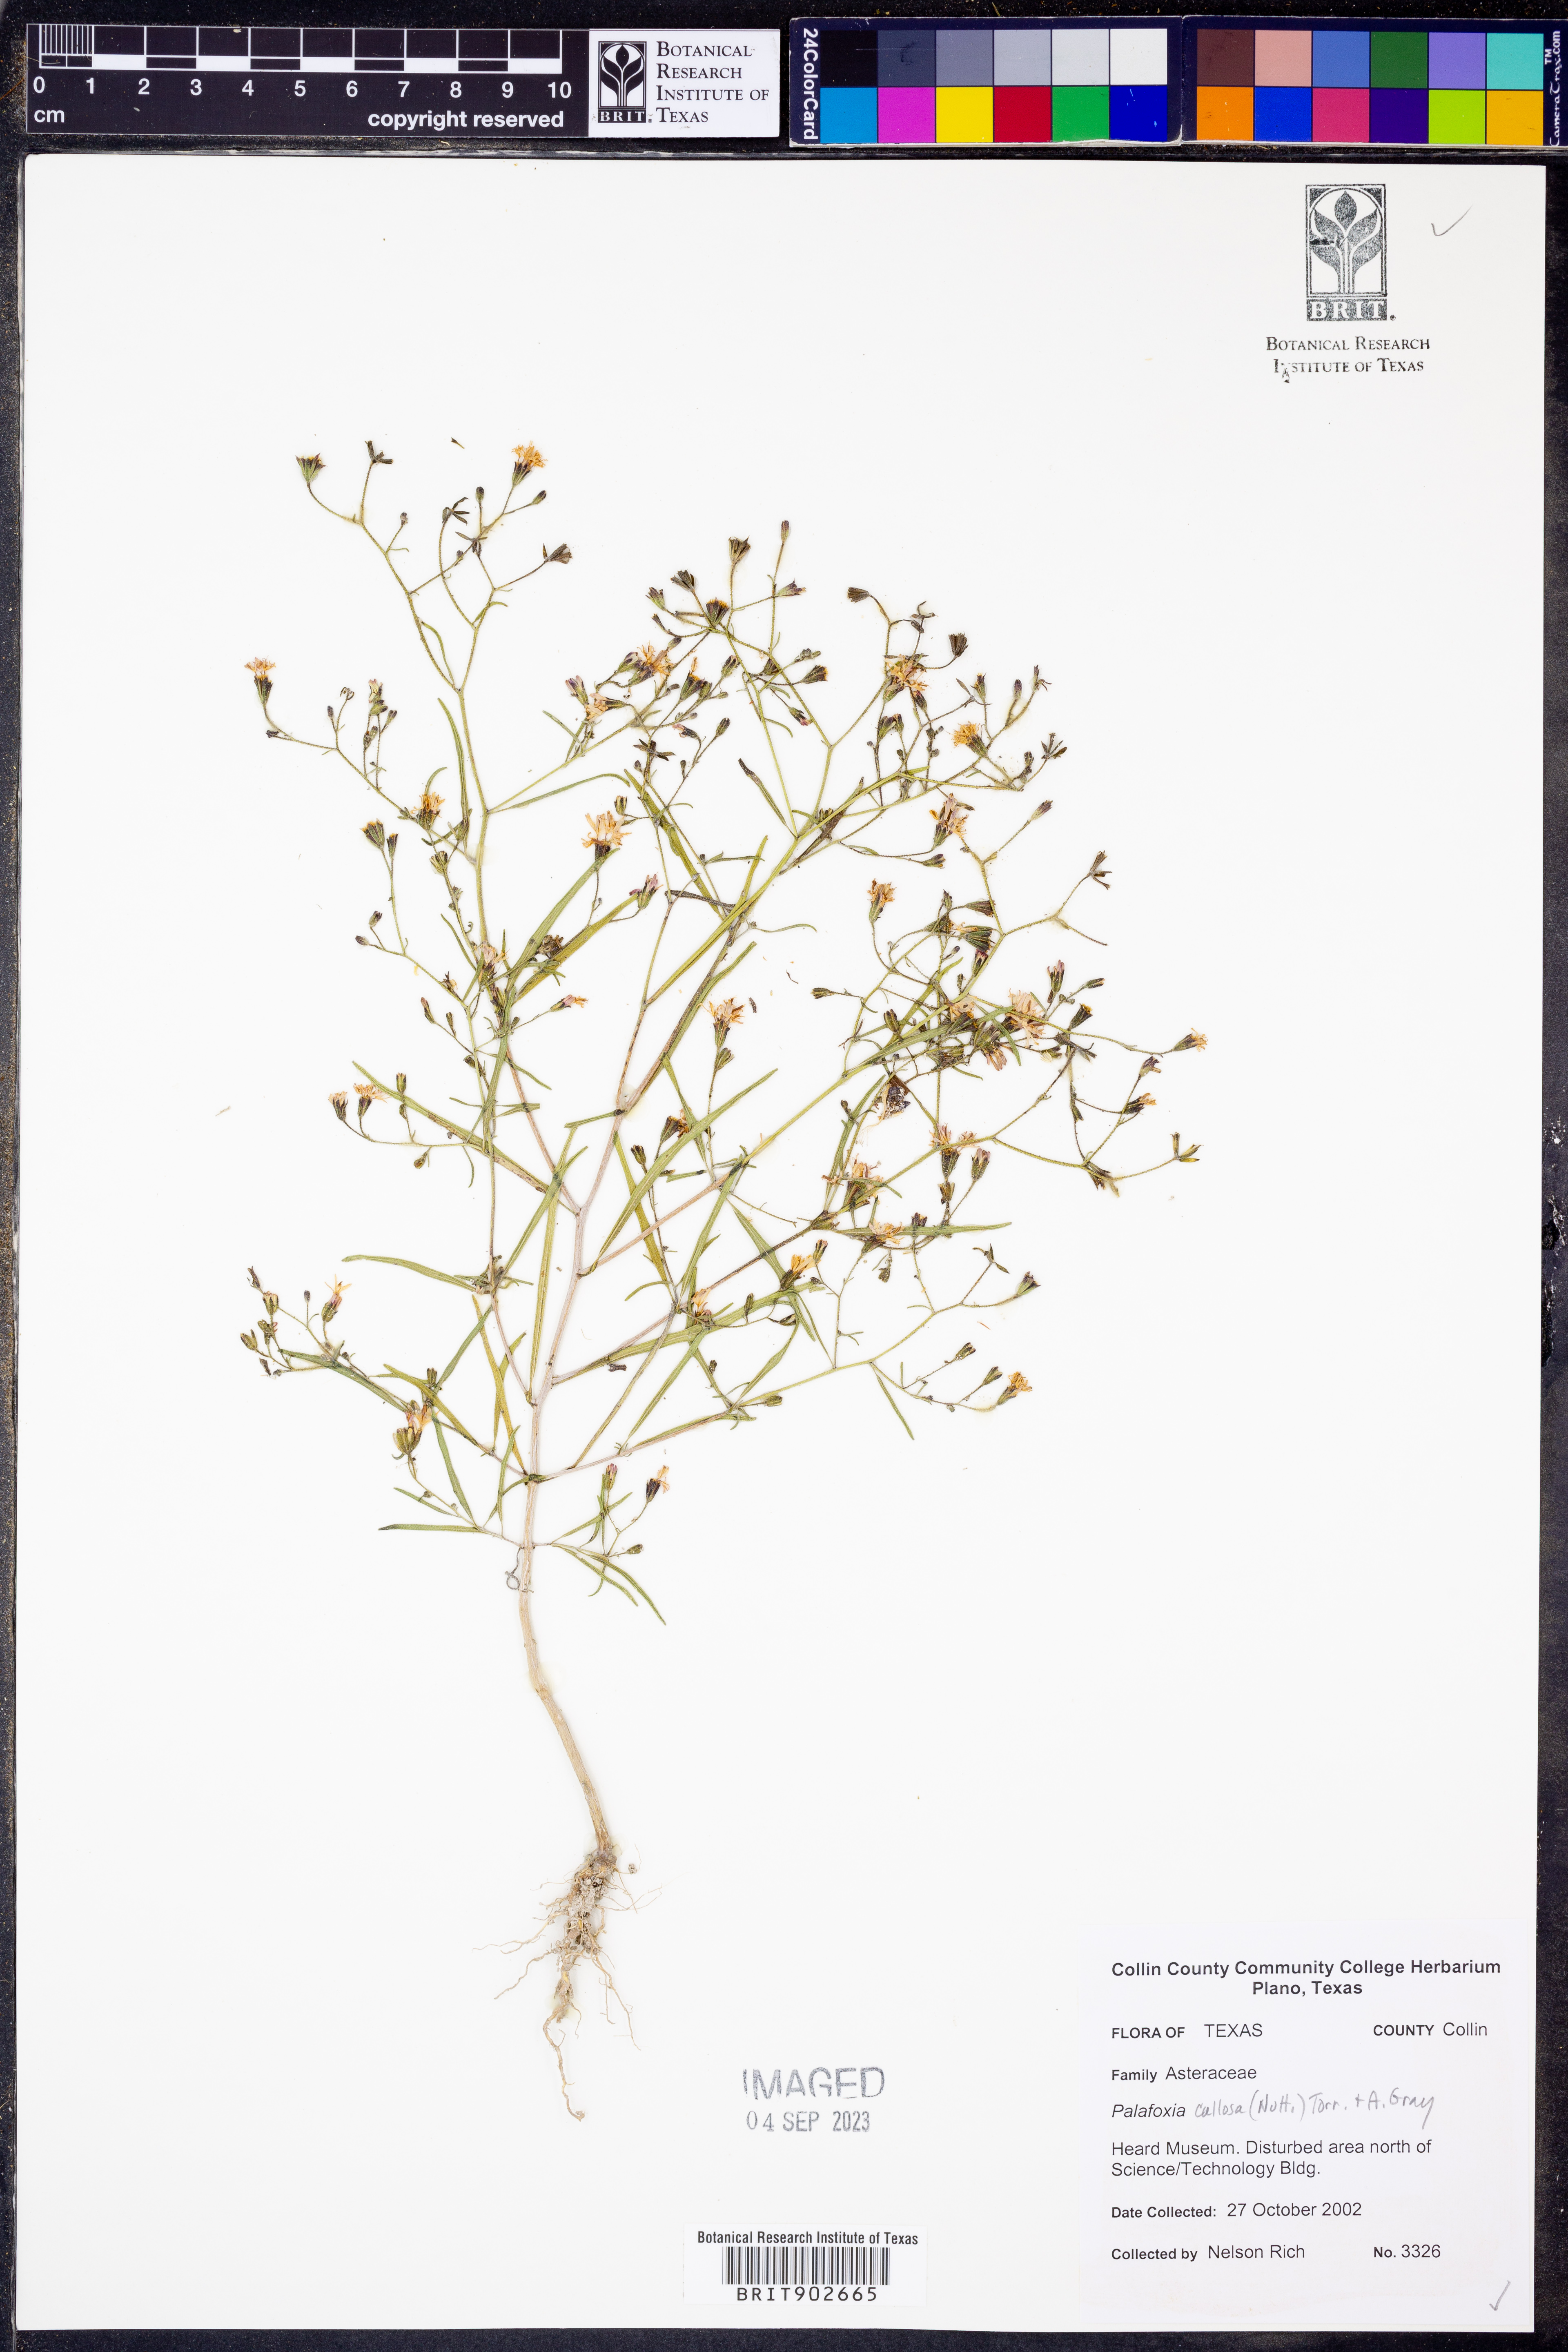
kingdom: Plantae
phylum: Tracheophyta
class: Magnoliopsida
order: Asterales
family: Asteraceae
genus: Palafoxia
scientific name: Palafoxia callosa
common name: Small palafox
